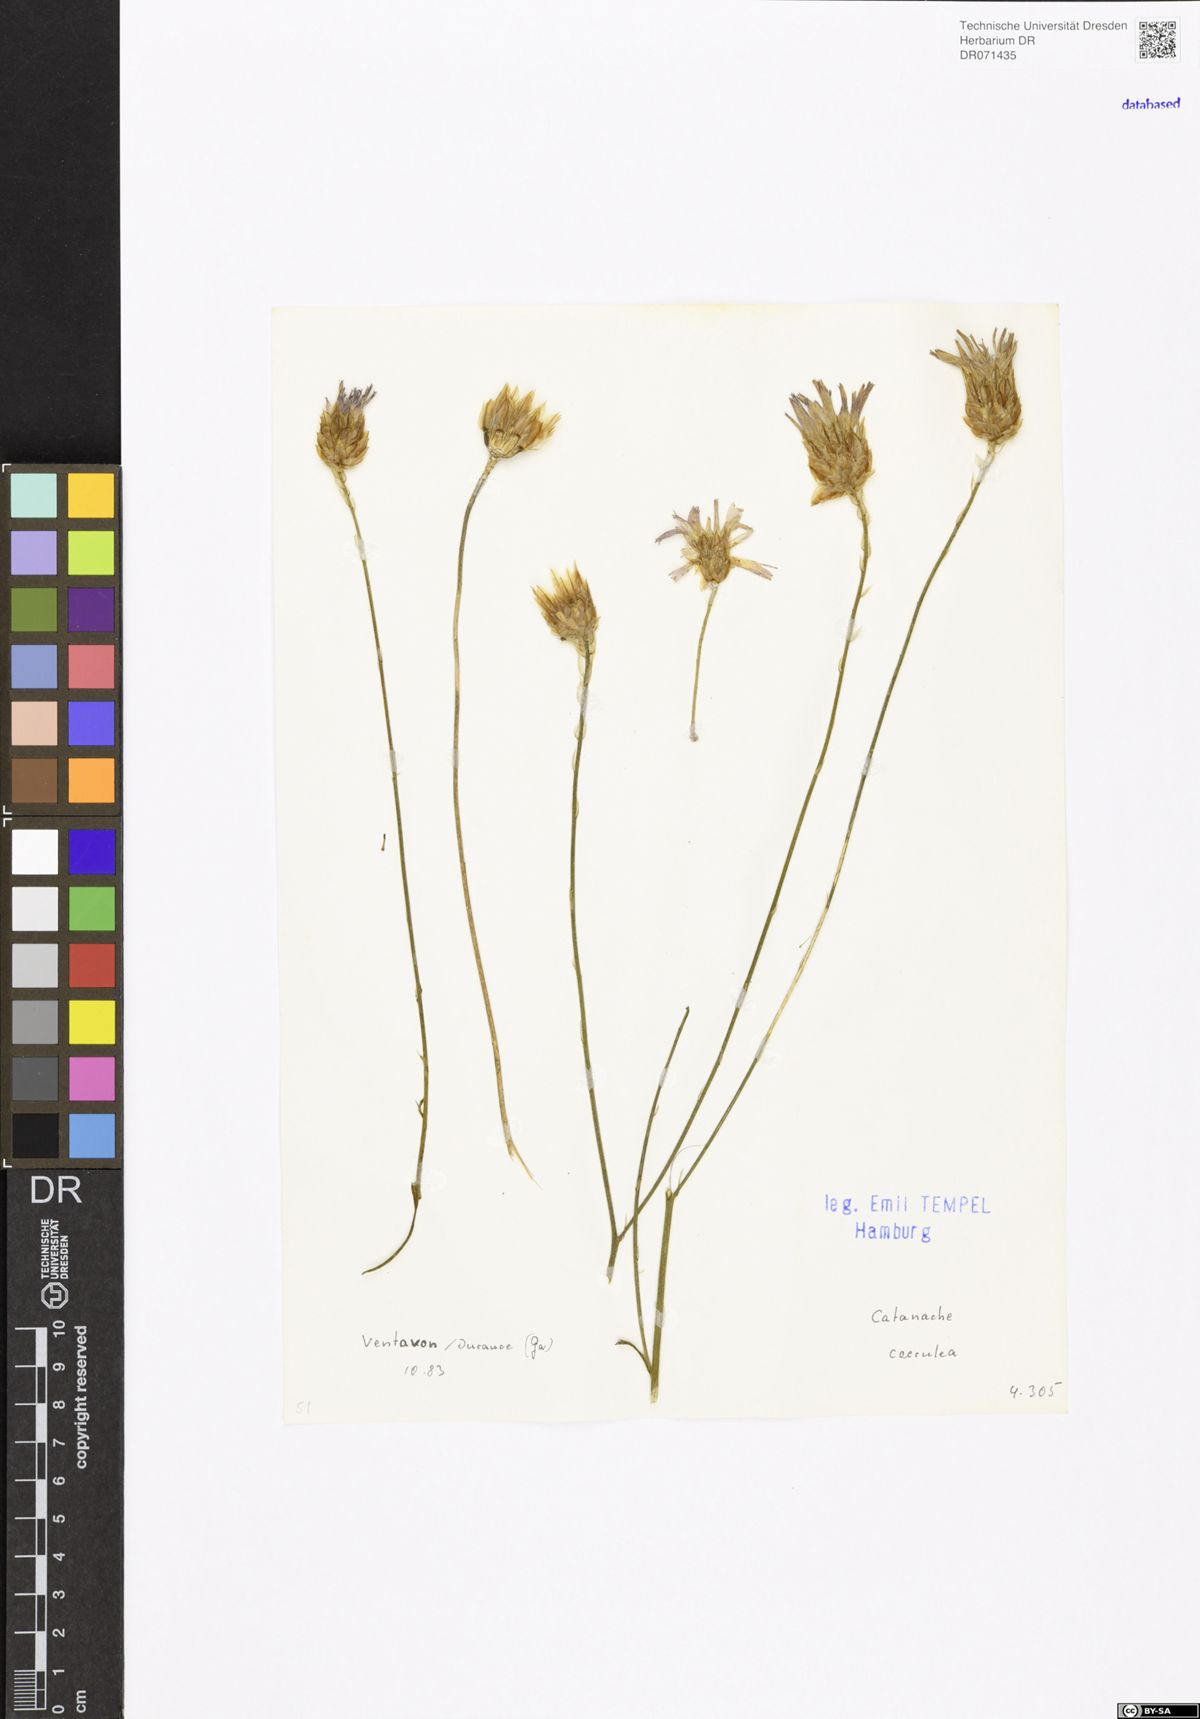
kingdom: Plantae
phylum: Tracheophyta
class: Magnoliopsida
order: Asterales
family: Asteraceae
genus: Catananche
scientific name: Catananche caerulea
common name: Blue cupidone
